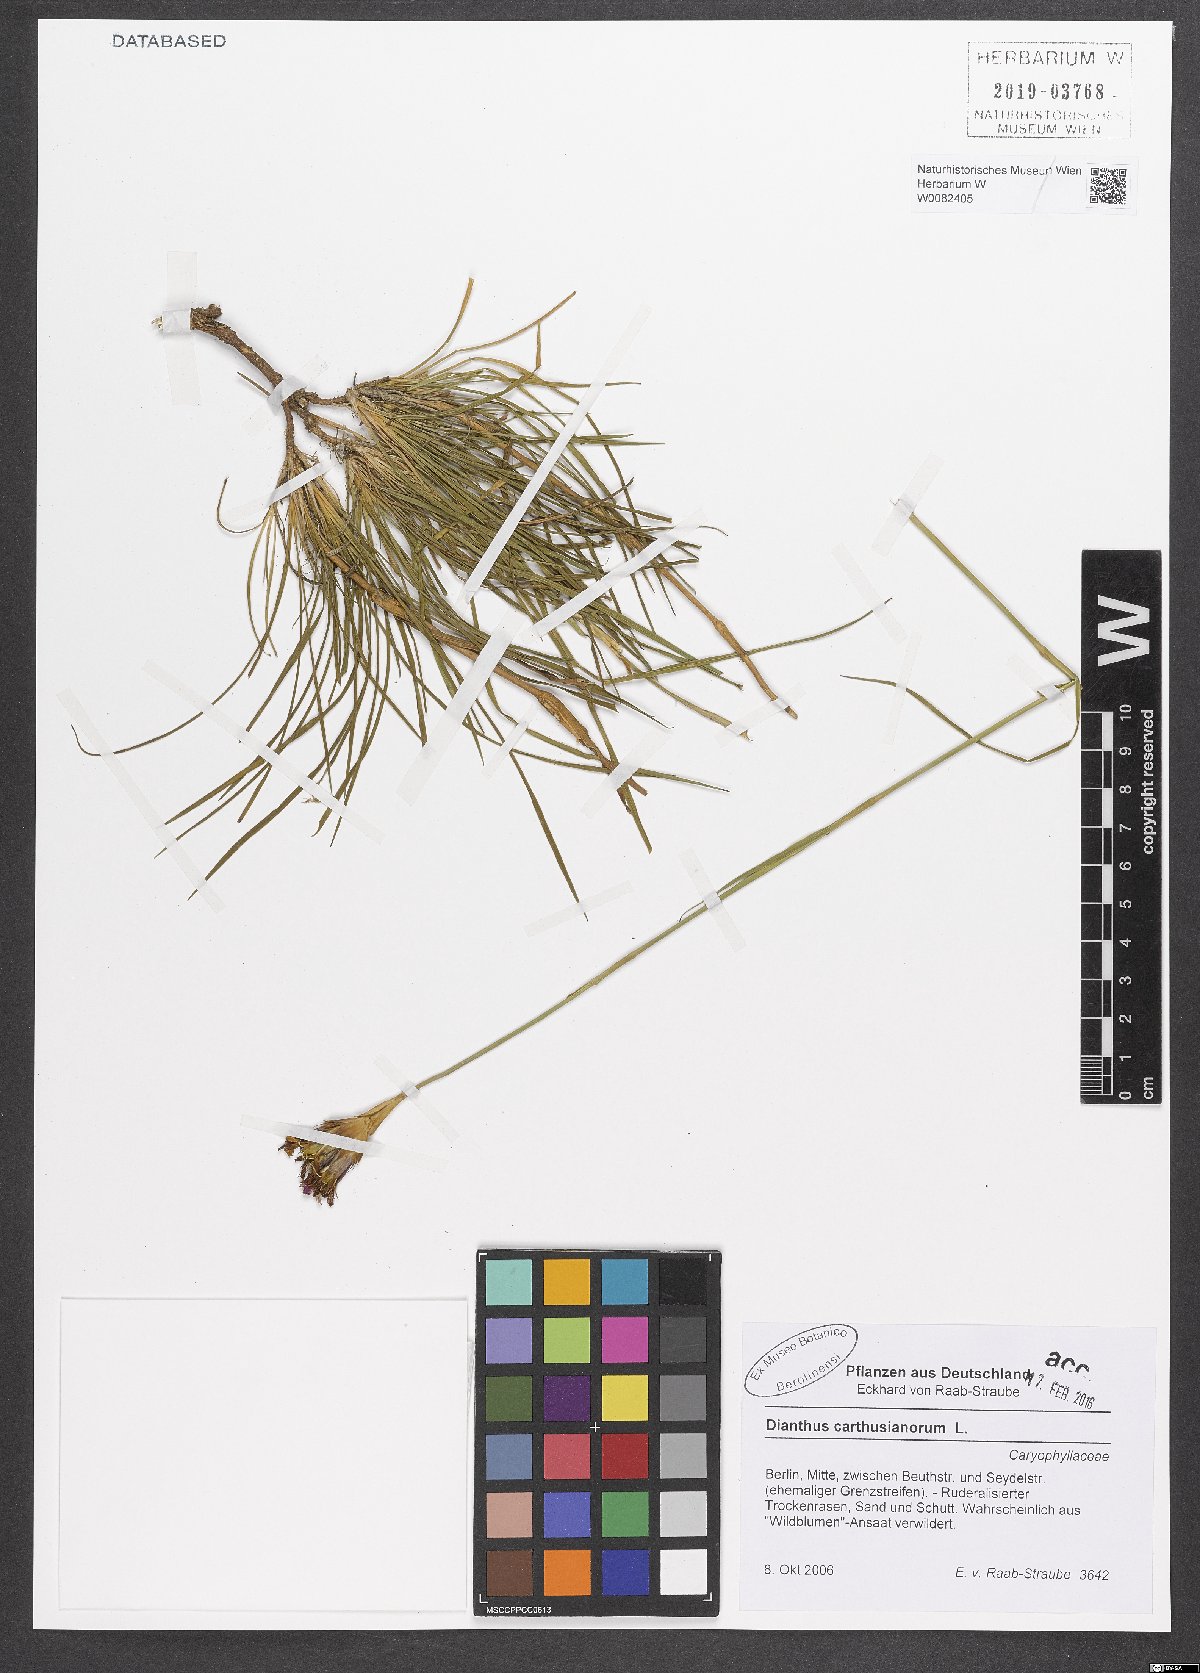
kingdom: Plantae
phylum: Tracheophyta
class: Magnoliopsida
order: Caryophyllales
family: Caryophyllaceae
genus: Dianthus
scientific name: Dianthus carthusianorum
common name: Carthusian pink
